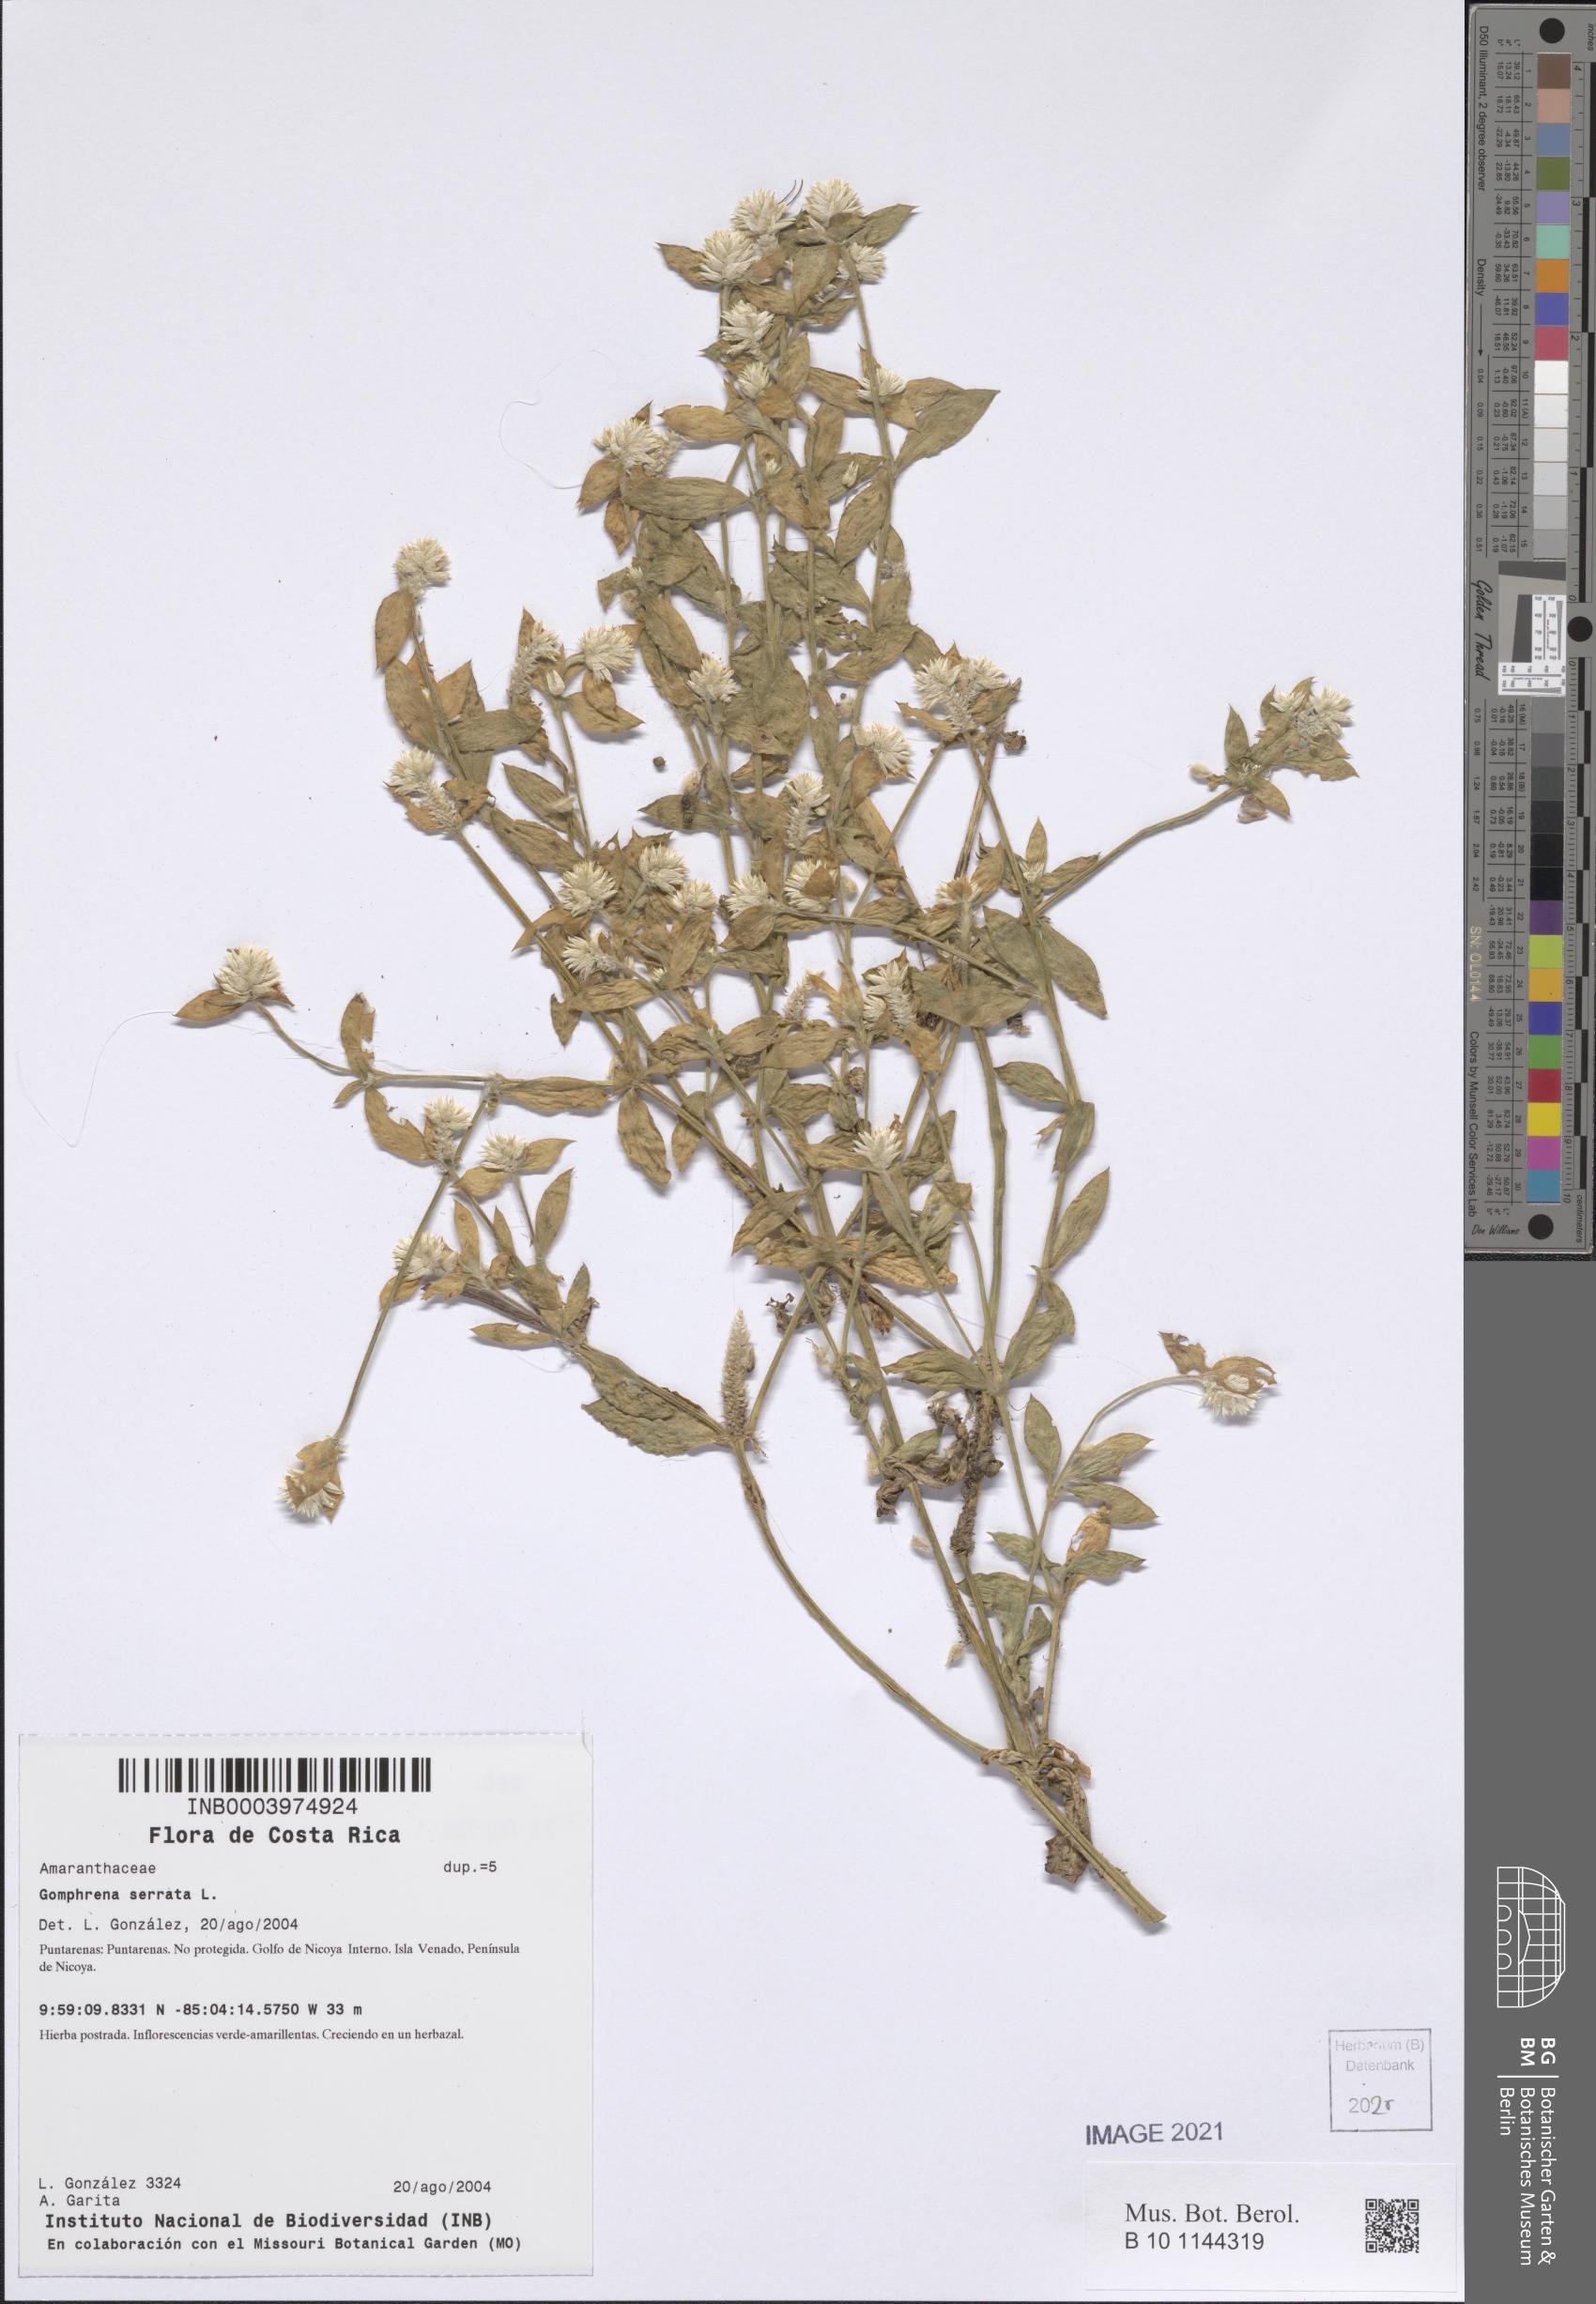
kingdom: Plantae
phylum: Tracheophyta
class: Magnoliopsida
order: Caryophyllales
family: Amaranthaceae
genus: Gomphrena
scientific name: Gomphrena serrata
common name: Arrasa con todo
